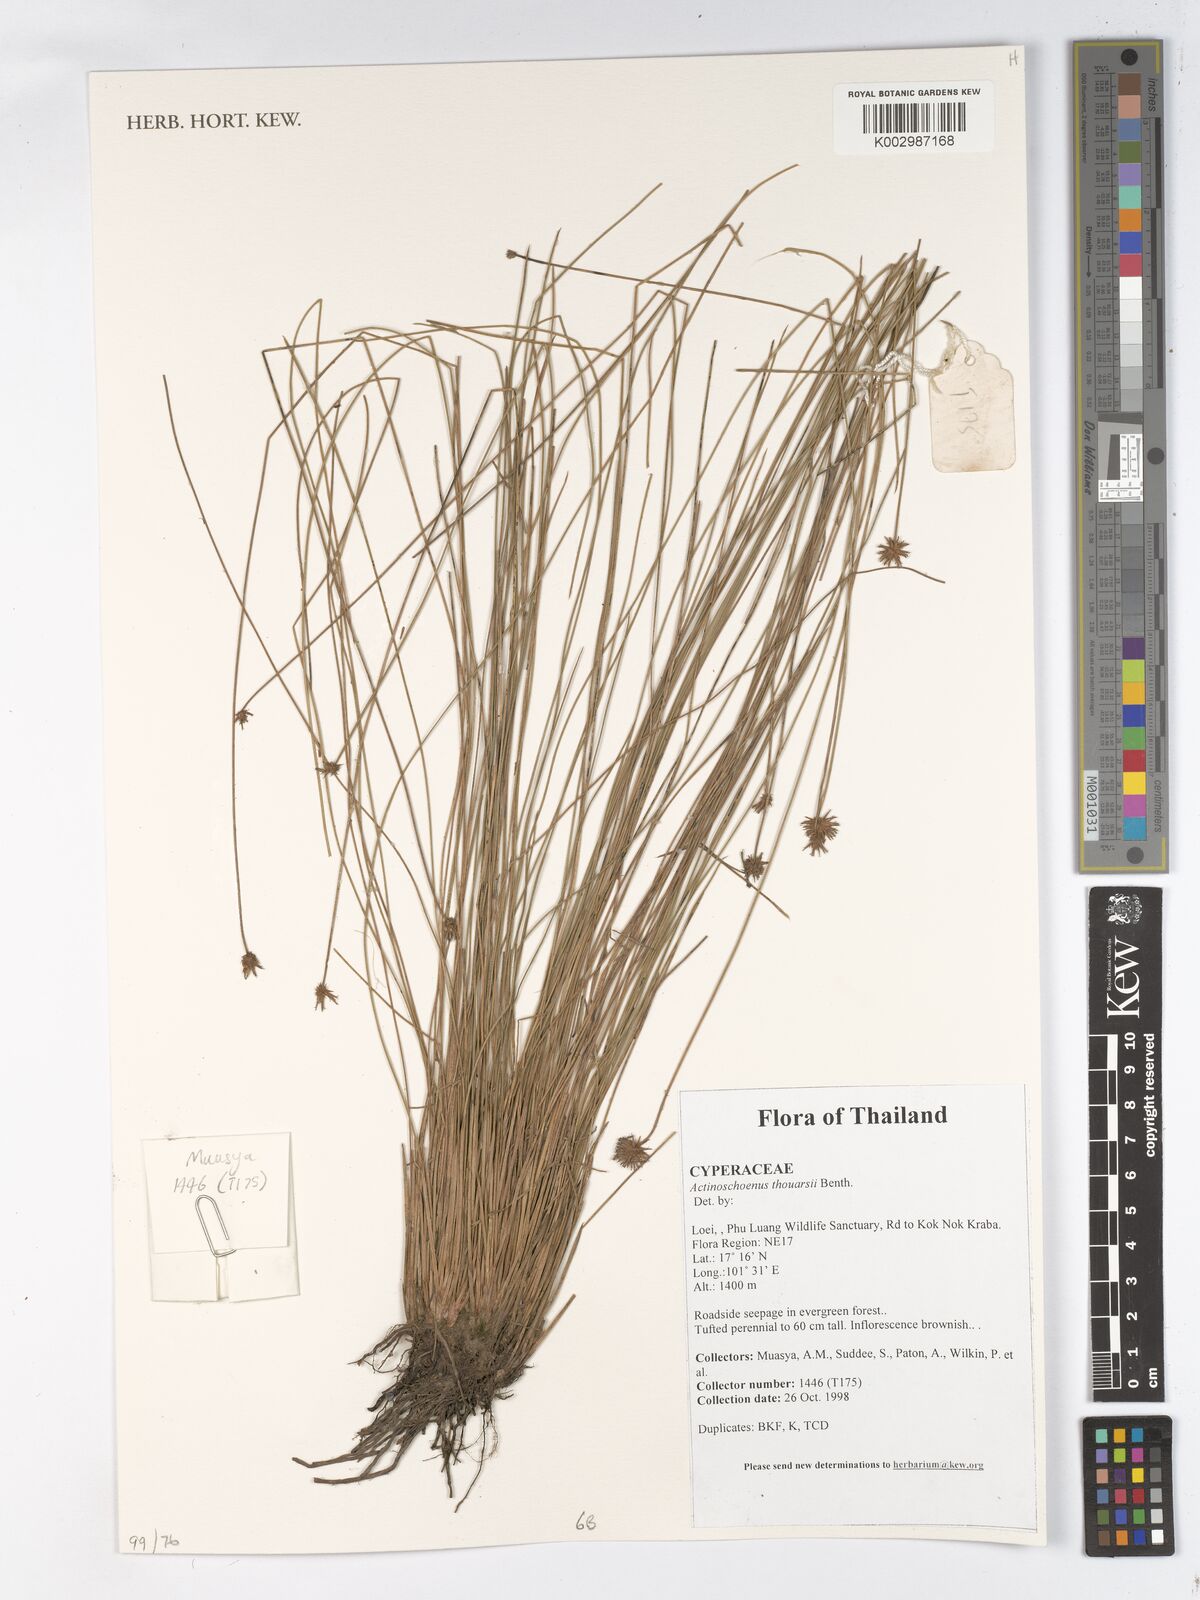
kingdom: Plantae
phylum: Tracheophyta
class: Liliopsida
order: Poales
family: Cyperaceae
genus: Actinoschoenus
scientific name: Actinoschoenus aphyllus
